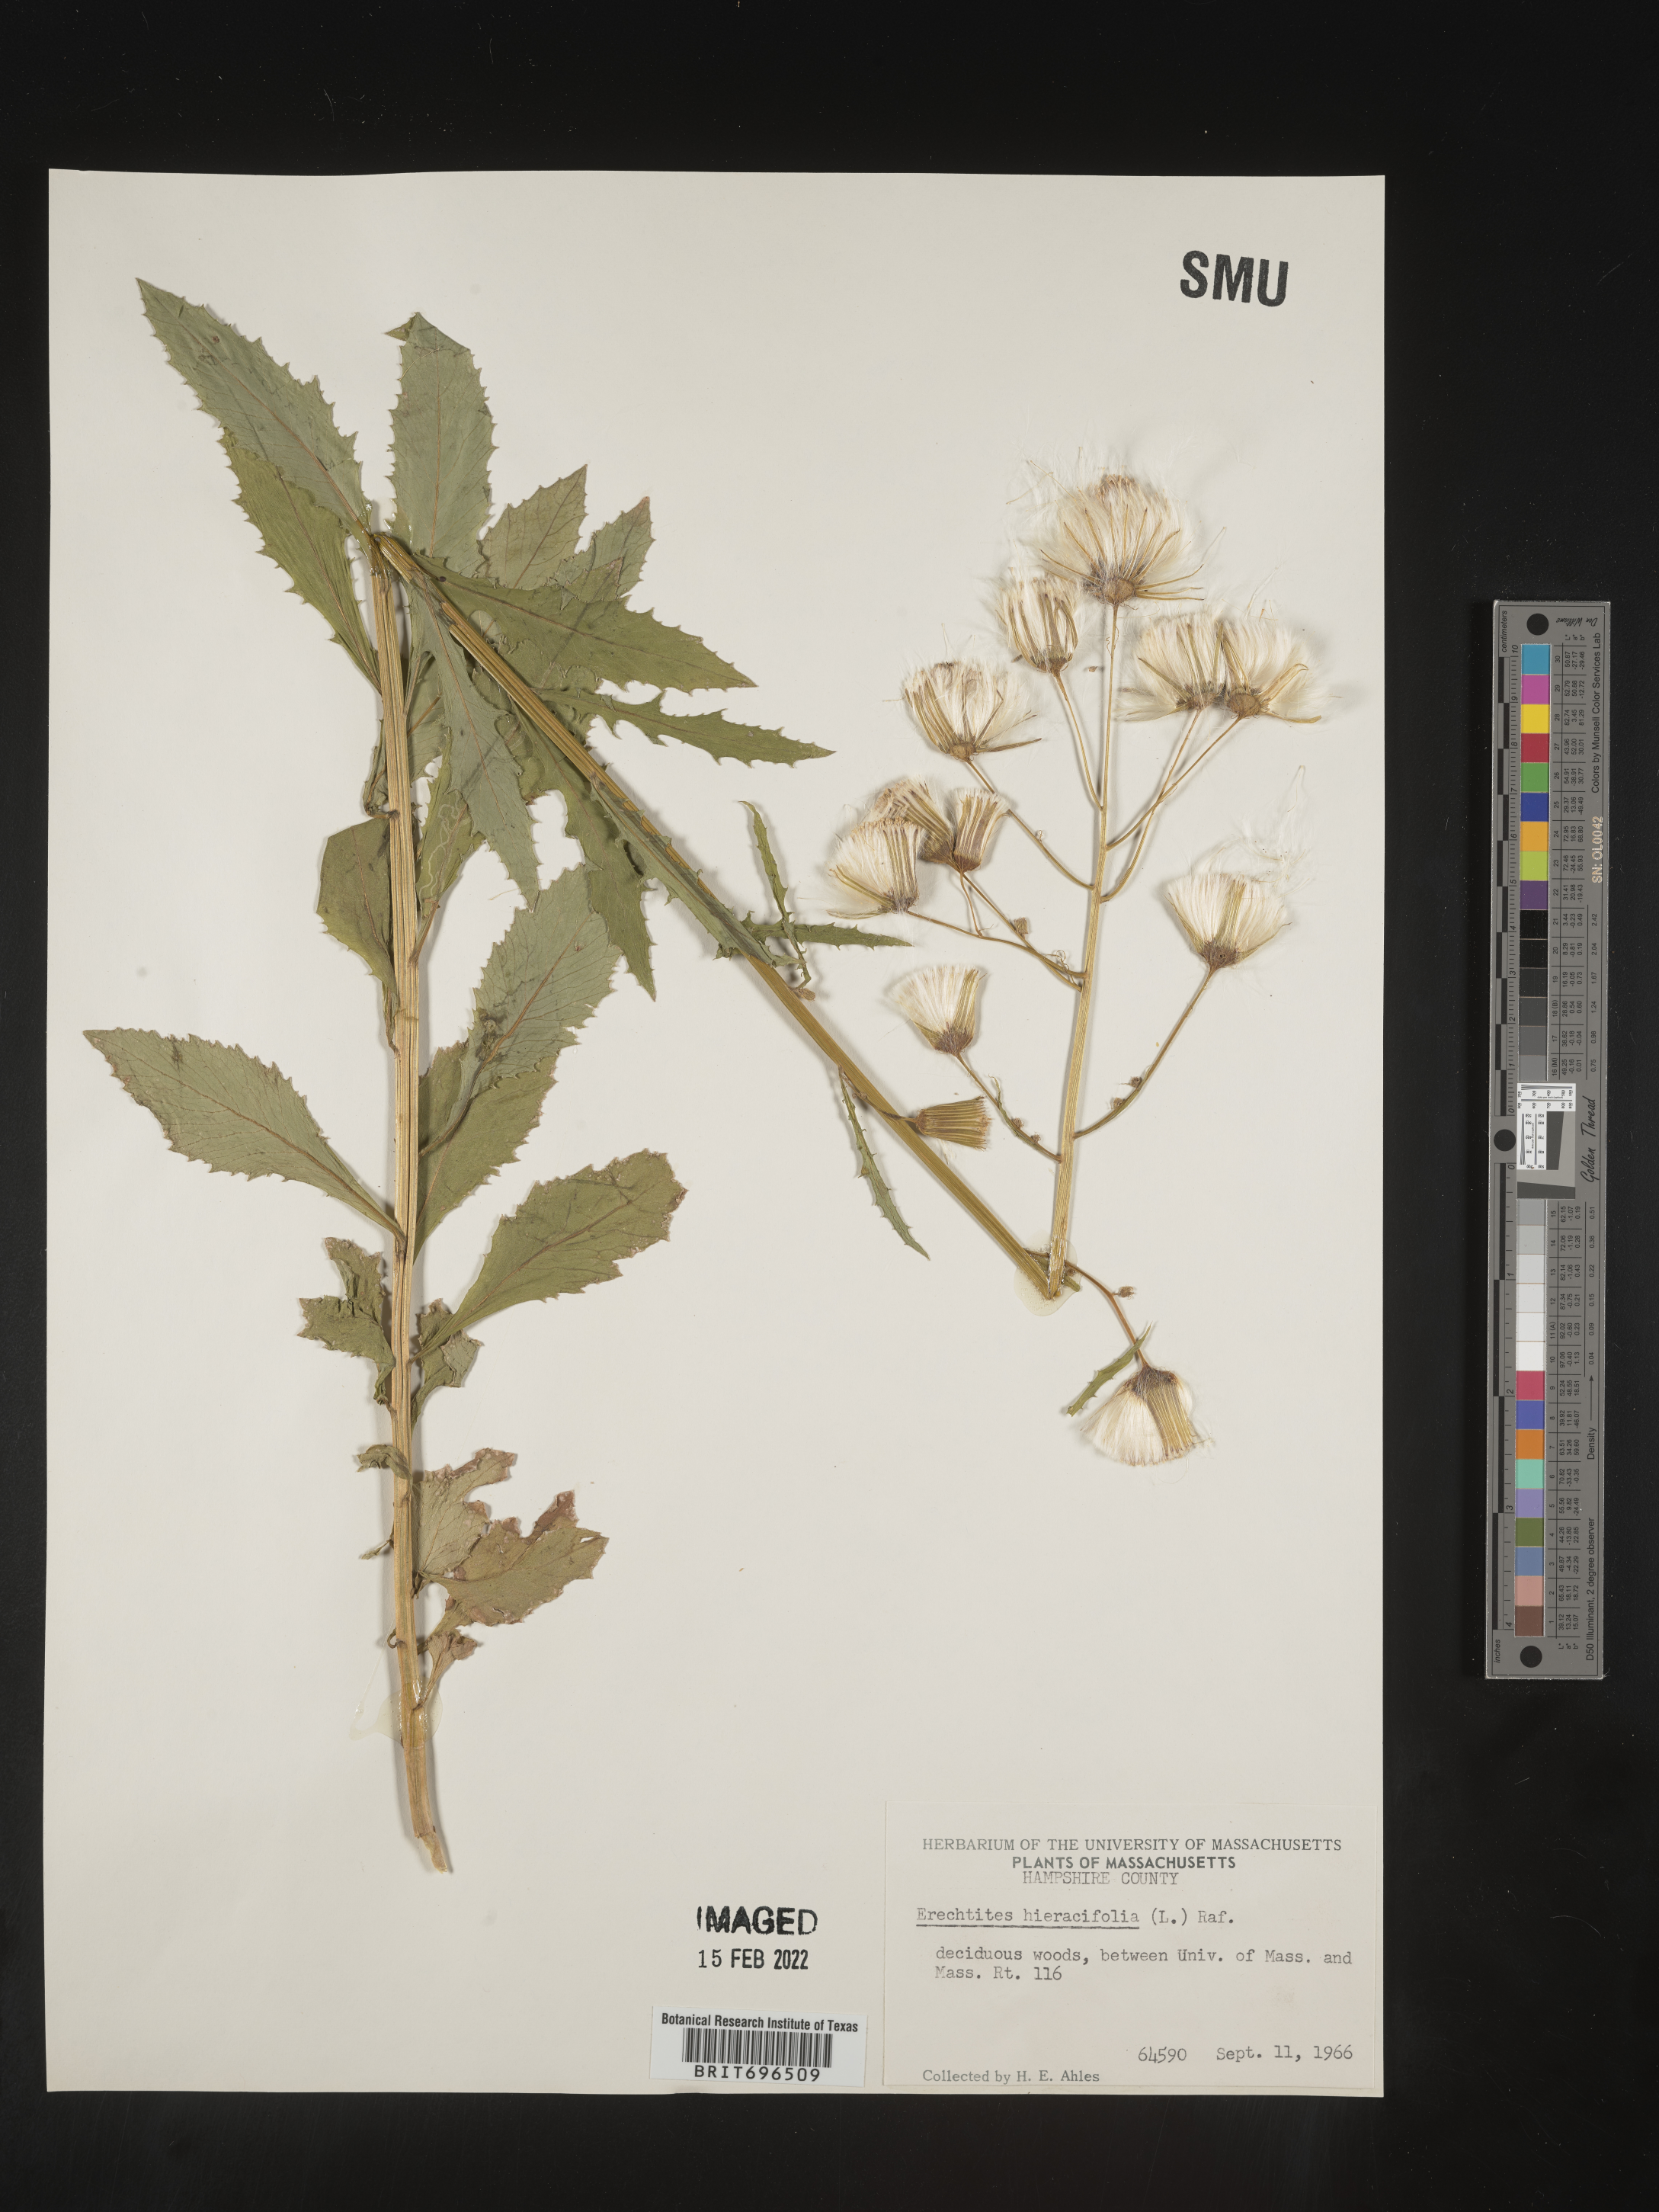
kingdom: Plantae
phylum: Tracheophyta
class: Magnoliopsida
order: Asterales
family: Asteraceae
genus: Erechtites
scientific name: Erechtites hieraciifolius
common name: American burnweed
